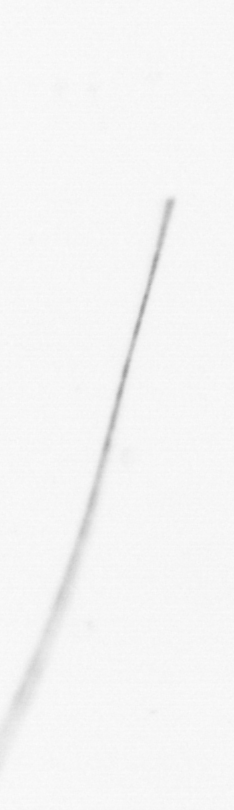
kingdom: Chromista
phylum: Ochrophyta
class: Bacillariophyceae
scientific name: Bacillariophyceae
